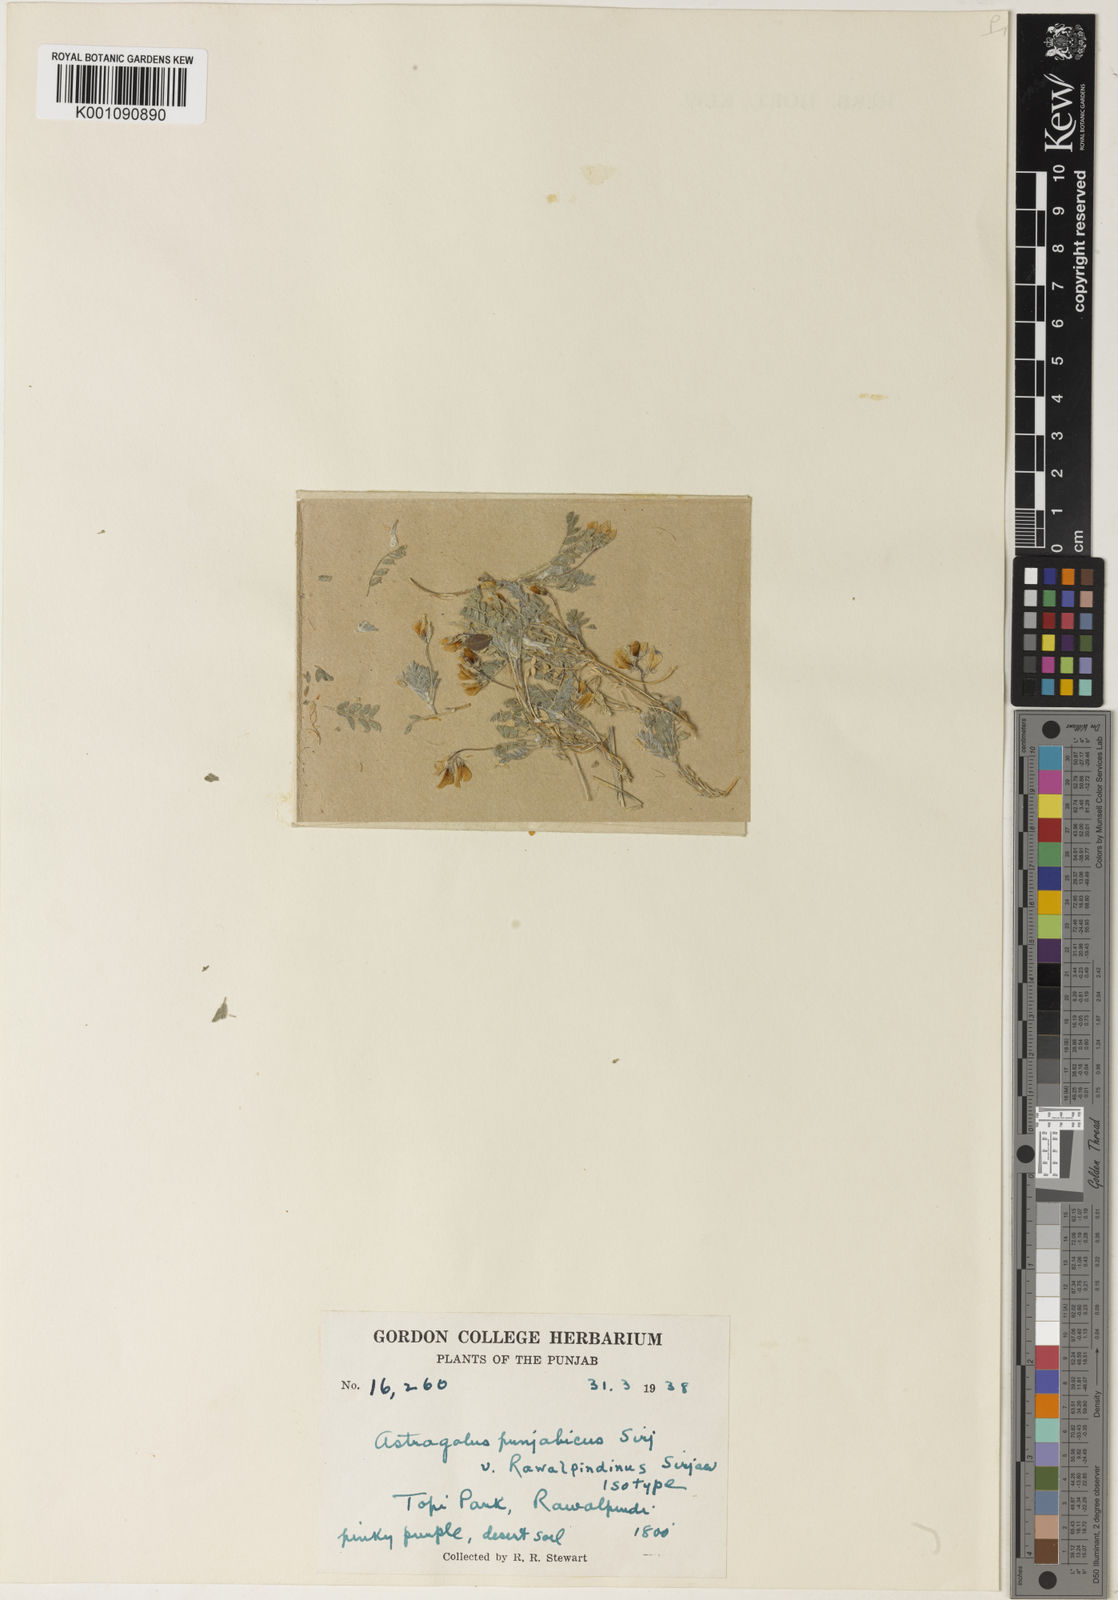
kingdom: Plantae
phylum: Tracheophyta
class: Magnoliopsida
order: Fabales
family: Fabaceae
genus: Astragalus
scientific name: Astragalus
